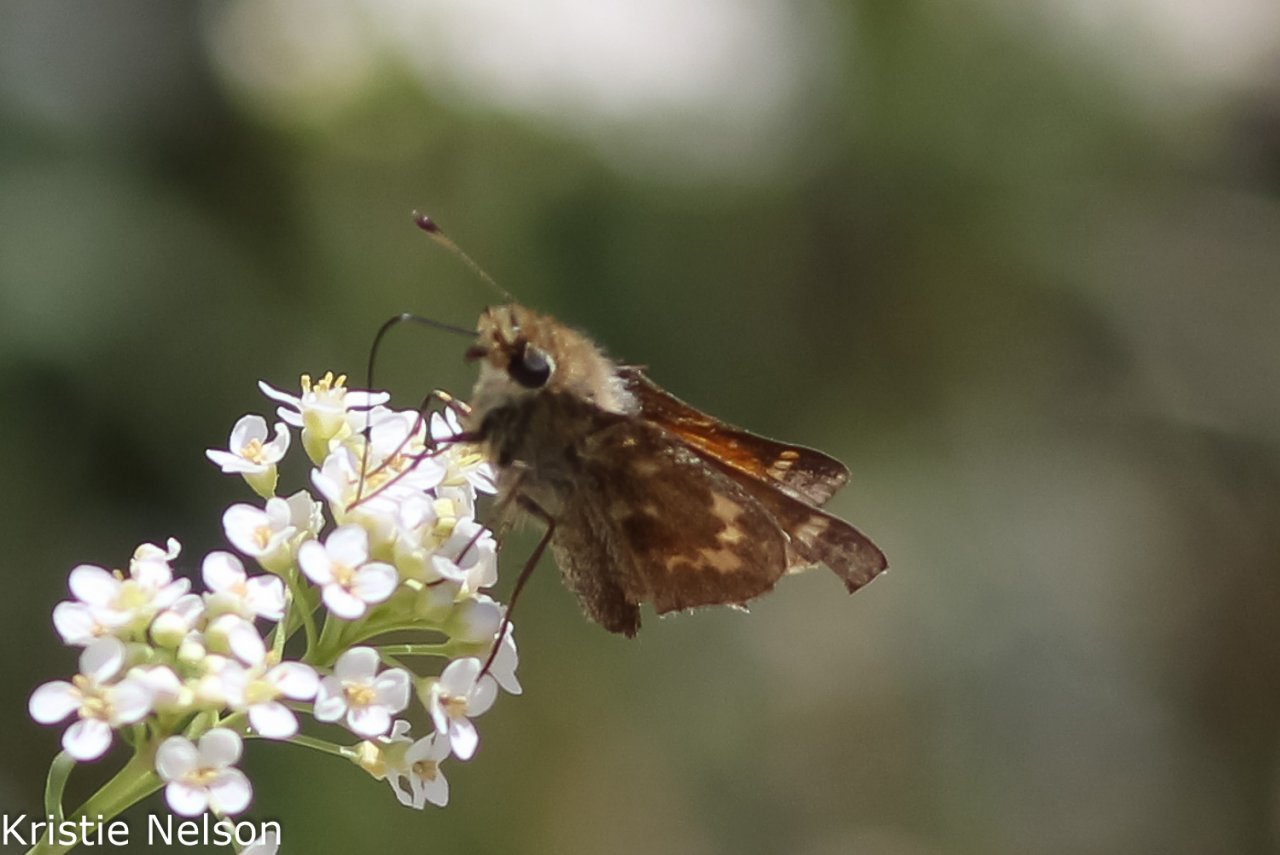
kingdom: Animalia
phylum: Arthropoda
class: Insecta
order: Lepidoptera
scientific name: Lepidoptera
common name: Butterflies
